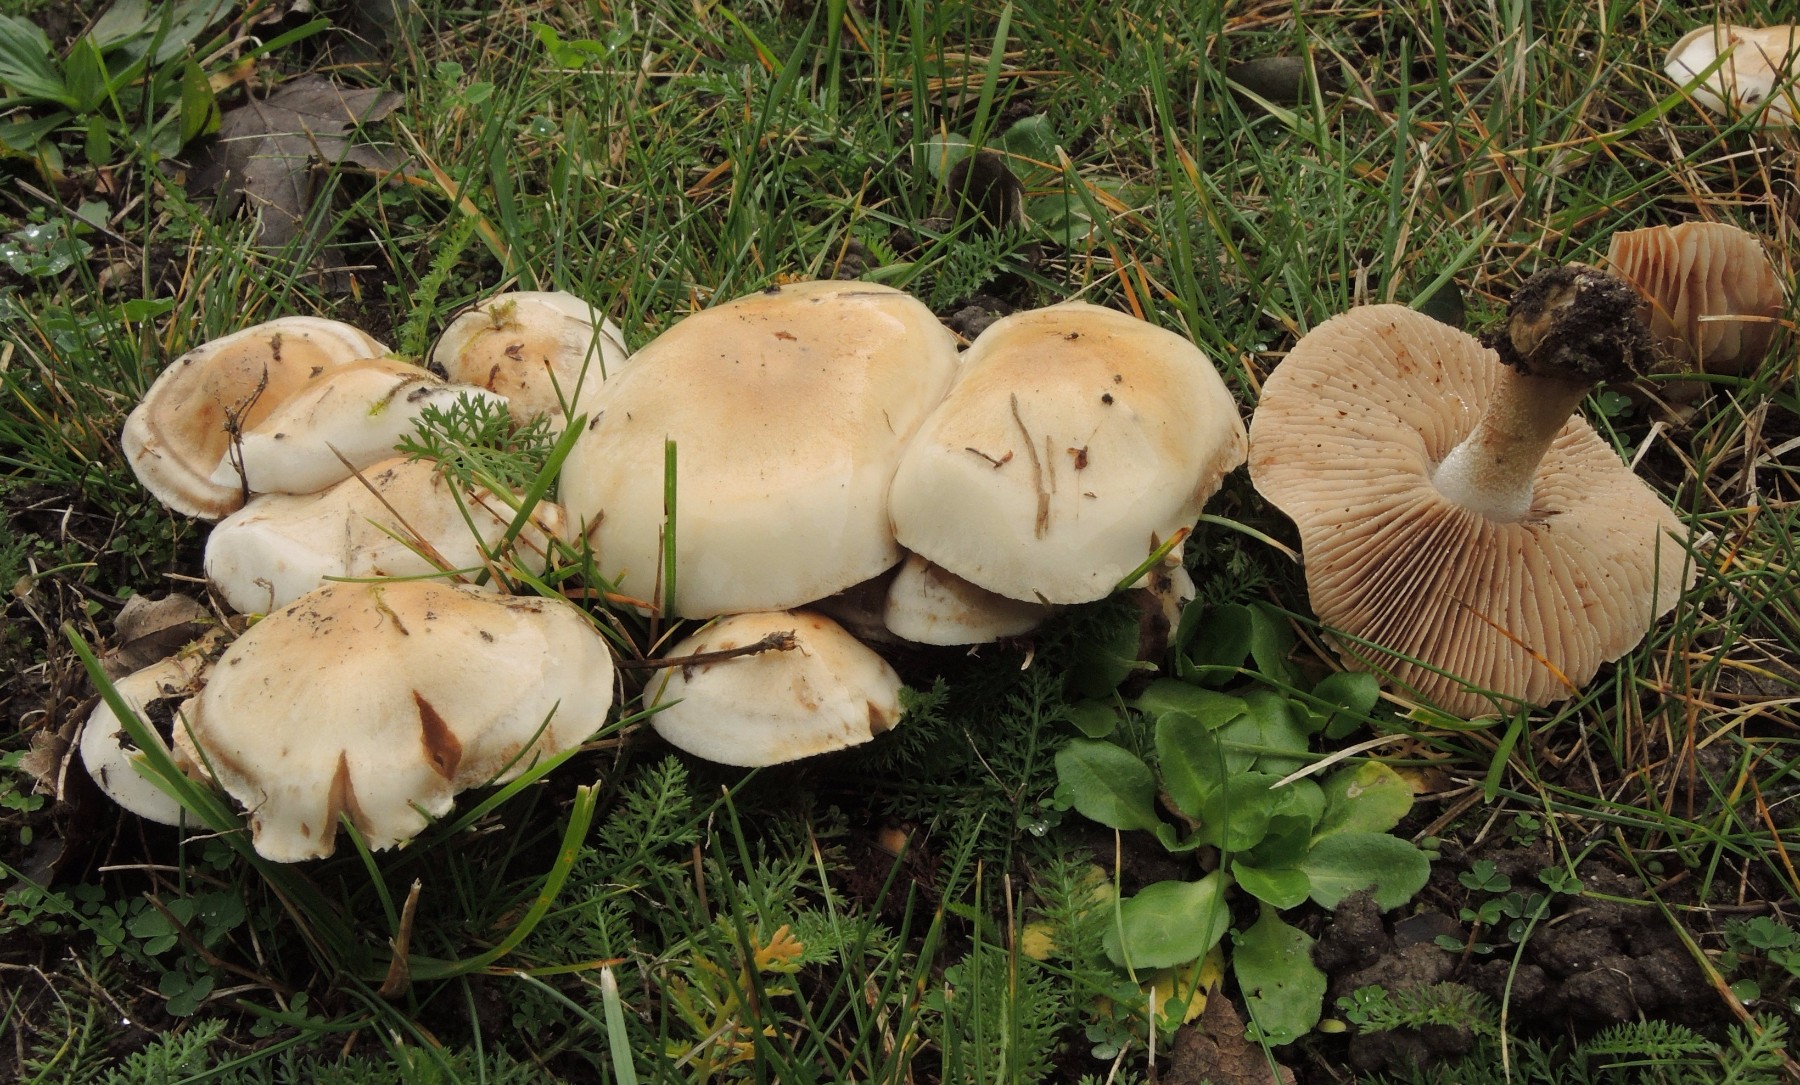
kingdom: Fungi
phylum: Basidiomycota
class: Agaricomycetes
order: Agaricales
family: Hymenogastraceae
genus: Hebeloma
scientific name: Hebeloma crustuliniforme
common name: almindelig tåreblad
